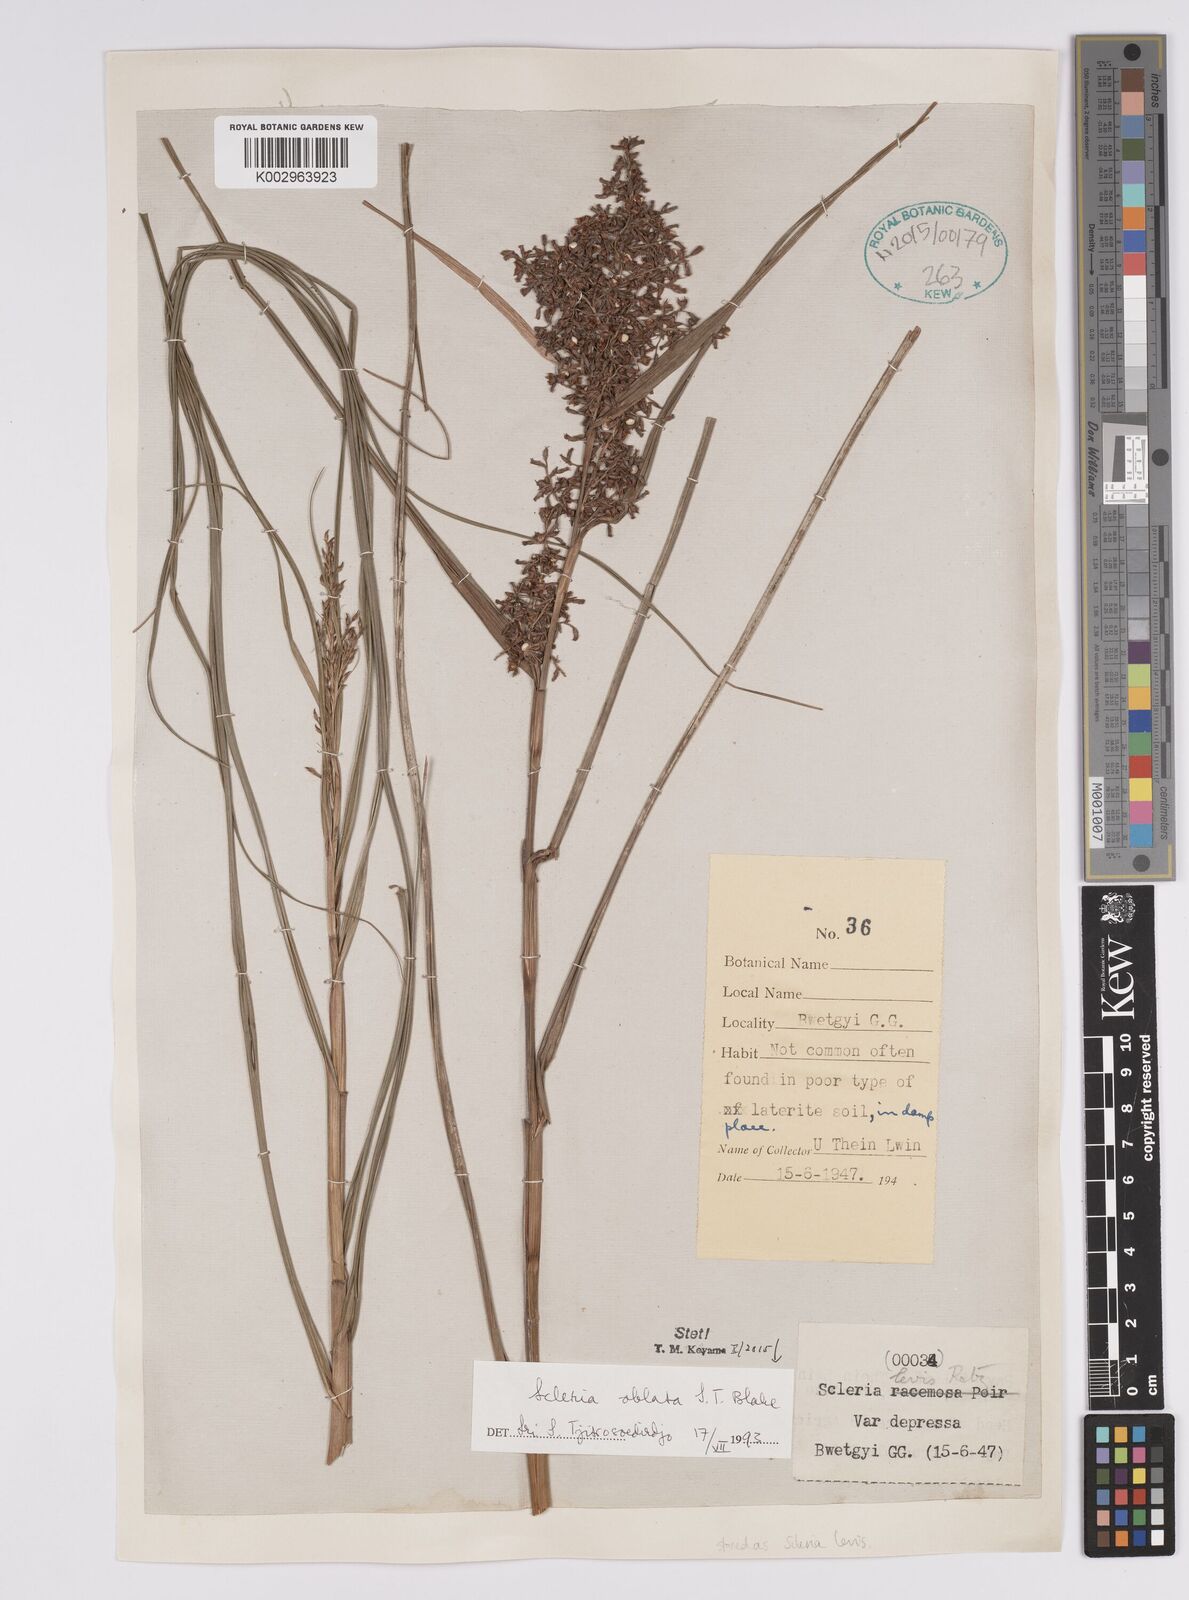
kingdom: Plantae
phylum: Tracheophyta
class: Liliopsida
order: Poales
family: Cyperaceae
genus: Scleria
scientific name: Scleria oblata
